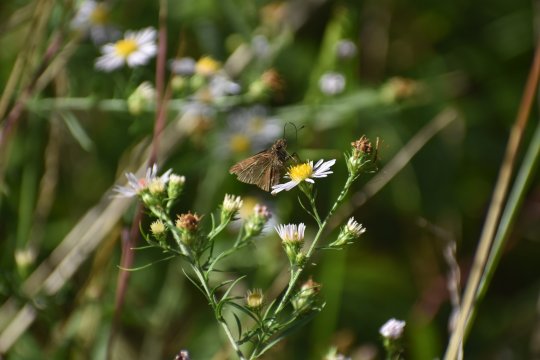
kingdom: Animalia
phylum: Arthropoda
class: Insecta
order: Lepidoptera
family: Hesperiidae
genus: Lerema
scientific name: Lerema accius
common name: Clouded Skipper
